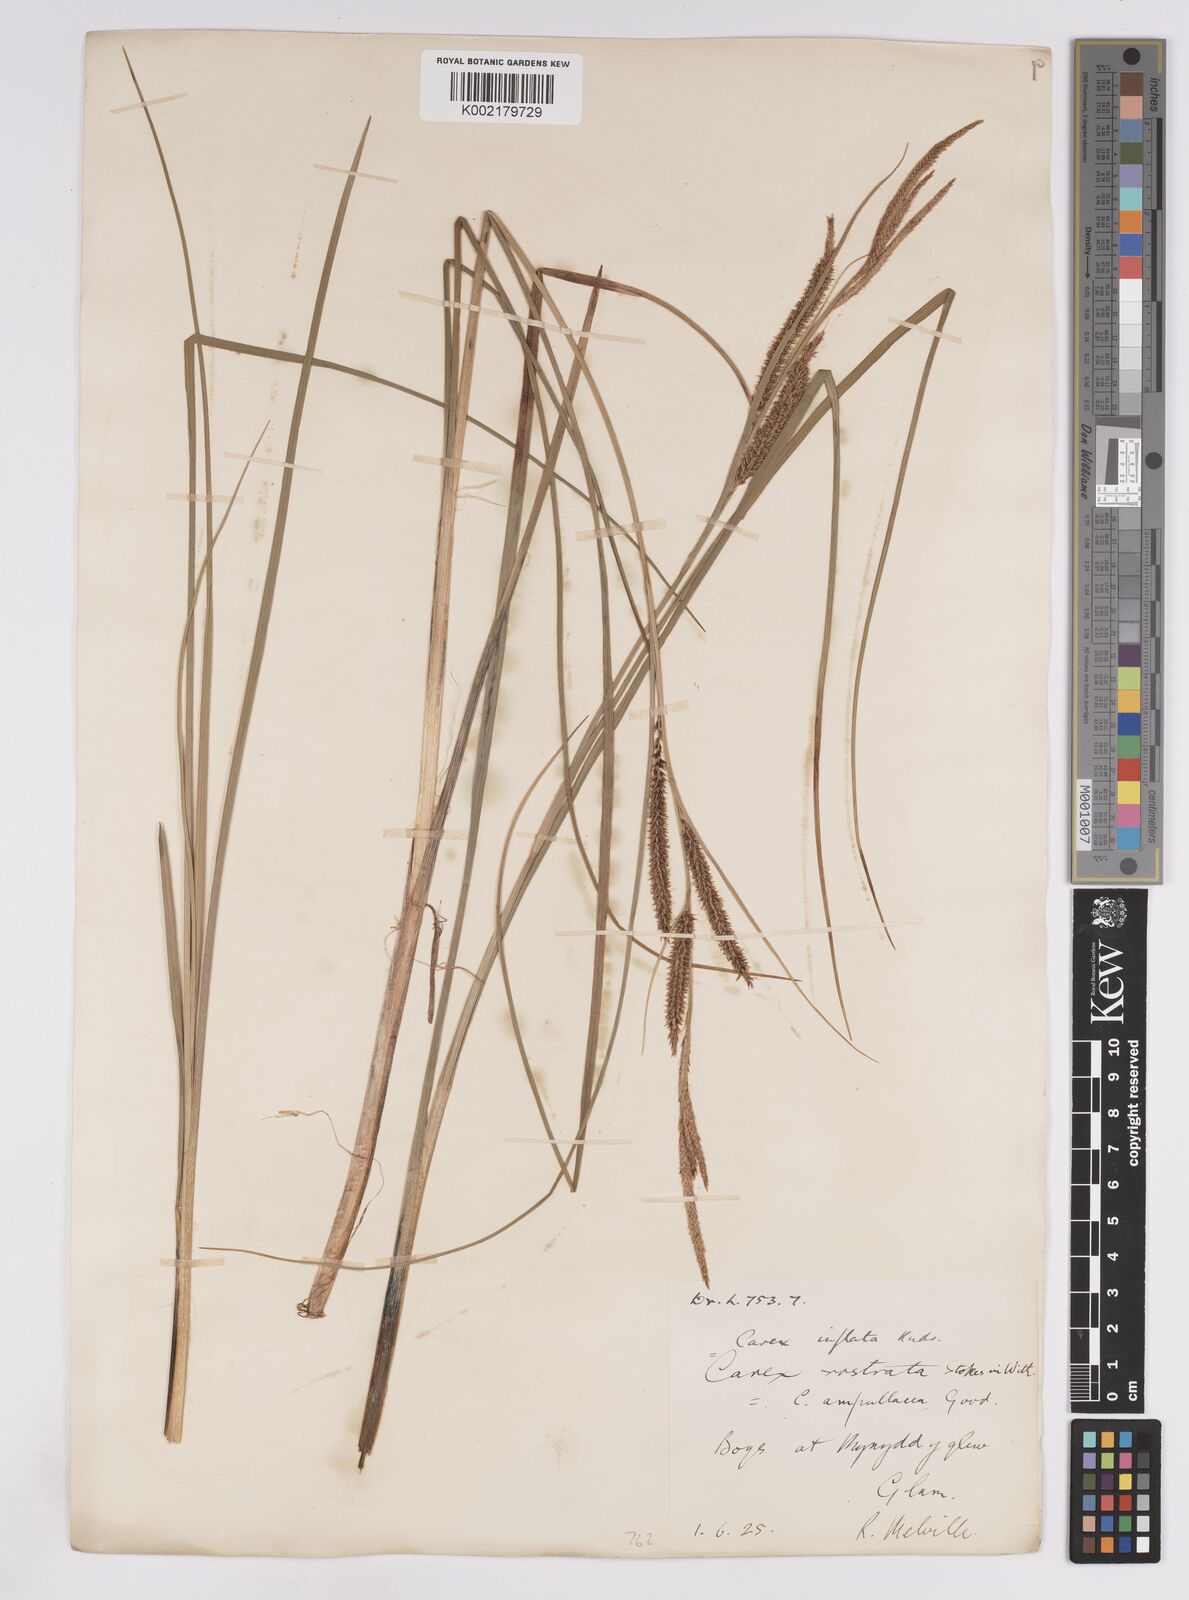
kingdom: Plantae
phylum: Tracheophyta
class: Liliopsida
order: Poales
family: Cyperaceae
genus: Carex
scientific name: Carex rostrata
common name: Bottle sedge
